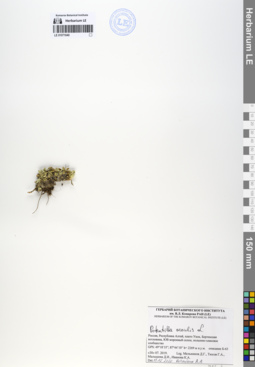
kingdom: Plantae
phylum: Tracheophyta
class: Magnoliopsida
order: Rosales
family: Rosaceae
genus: Potentilla
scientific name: Potentilla acaulis
